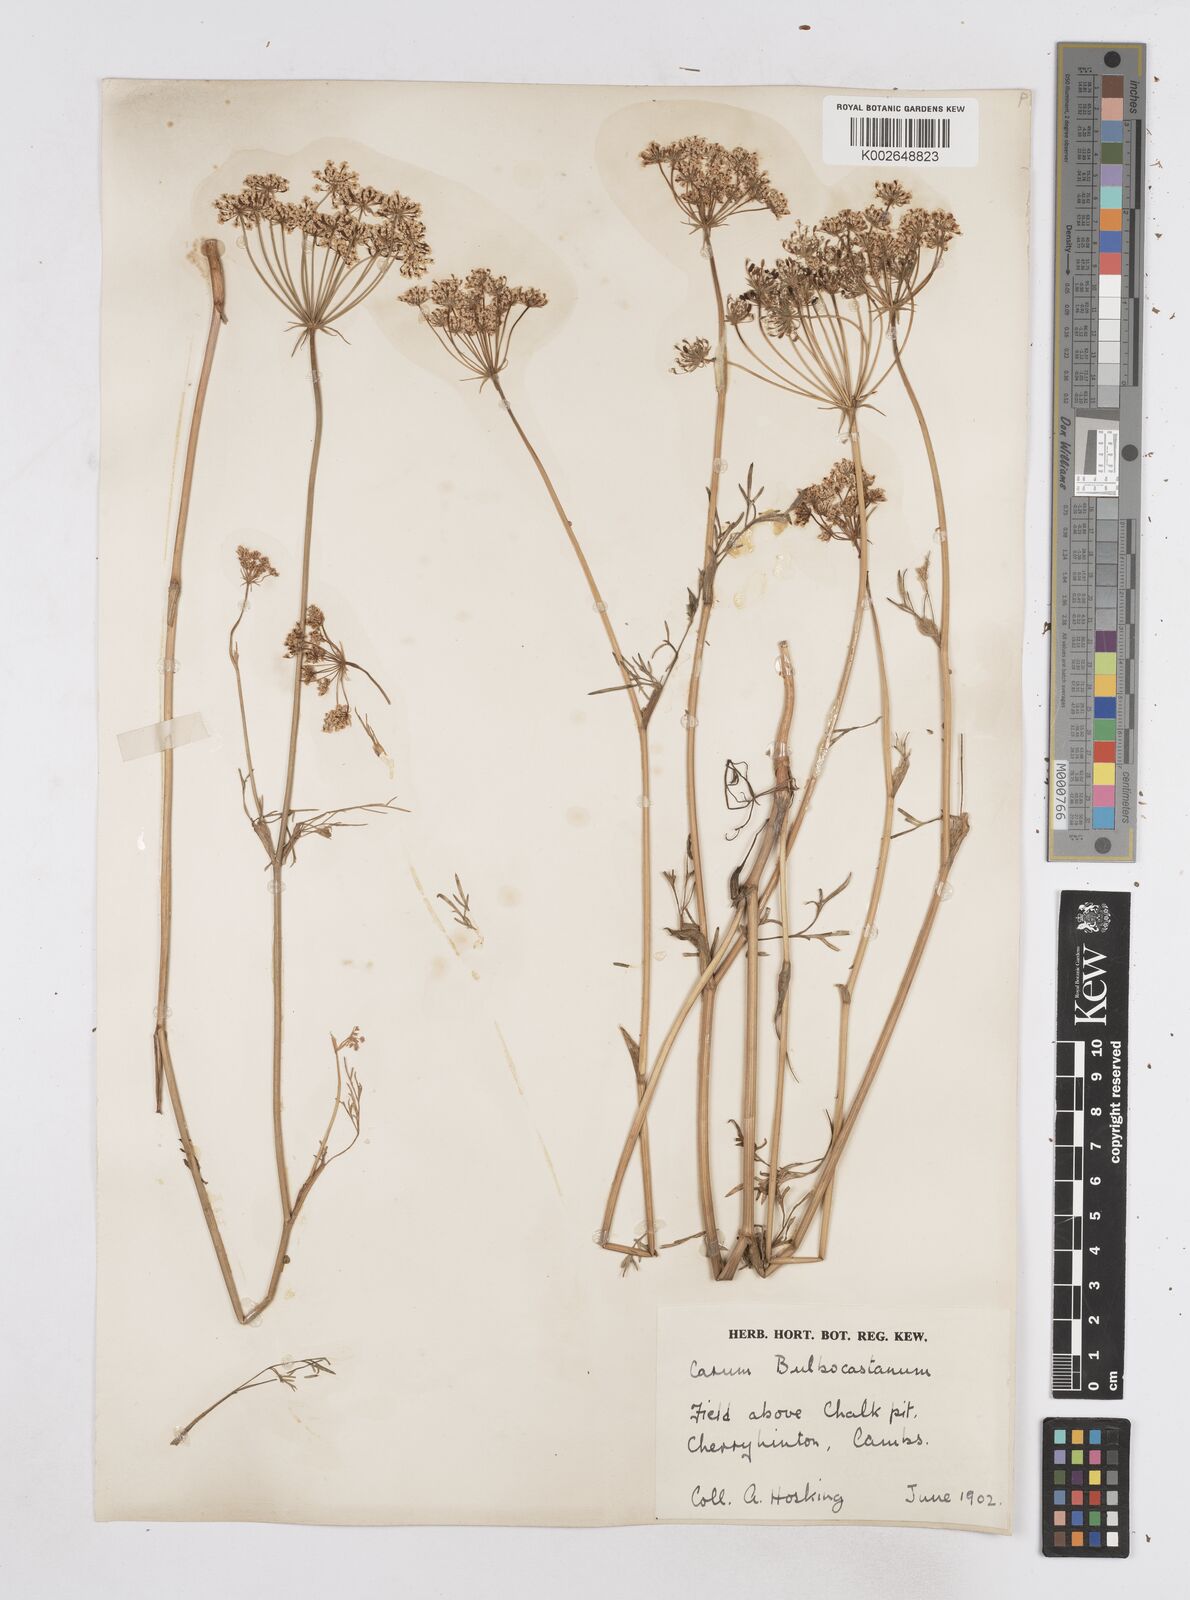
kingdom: Plantae
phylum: Tracheophyta
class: Magnoliopsida
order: Apiales
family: Apiaceae
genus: Bunium
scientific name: Bunium bulbocastanum
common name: Great pignut
